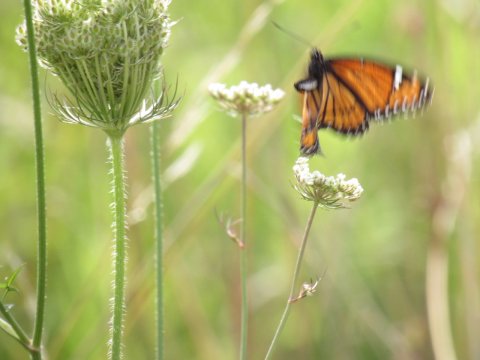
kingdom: Animalia
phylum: Arthropoda
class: Insecta
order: Lepidoptera
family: Nymphalidae
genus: Limenitis
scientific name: Limenitis archippus
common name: Viceroy
